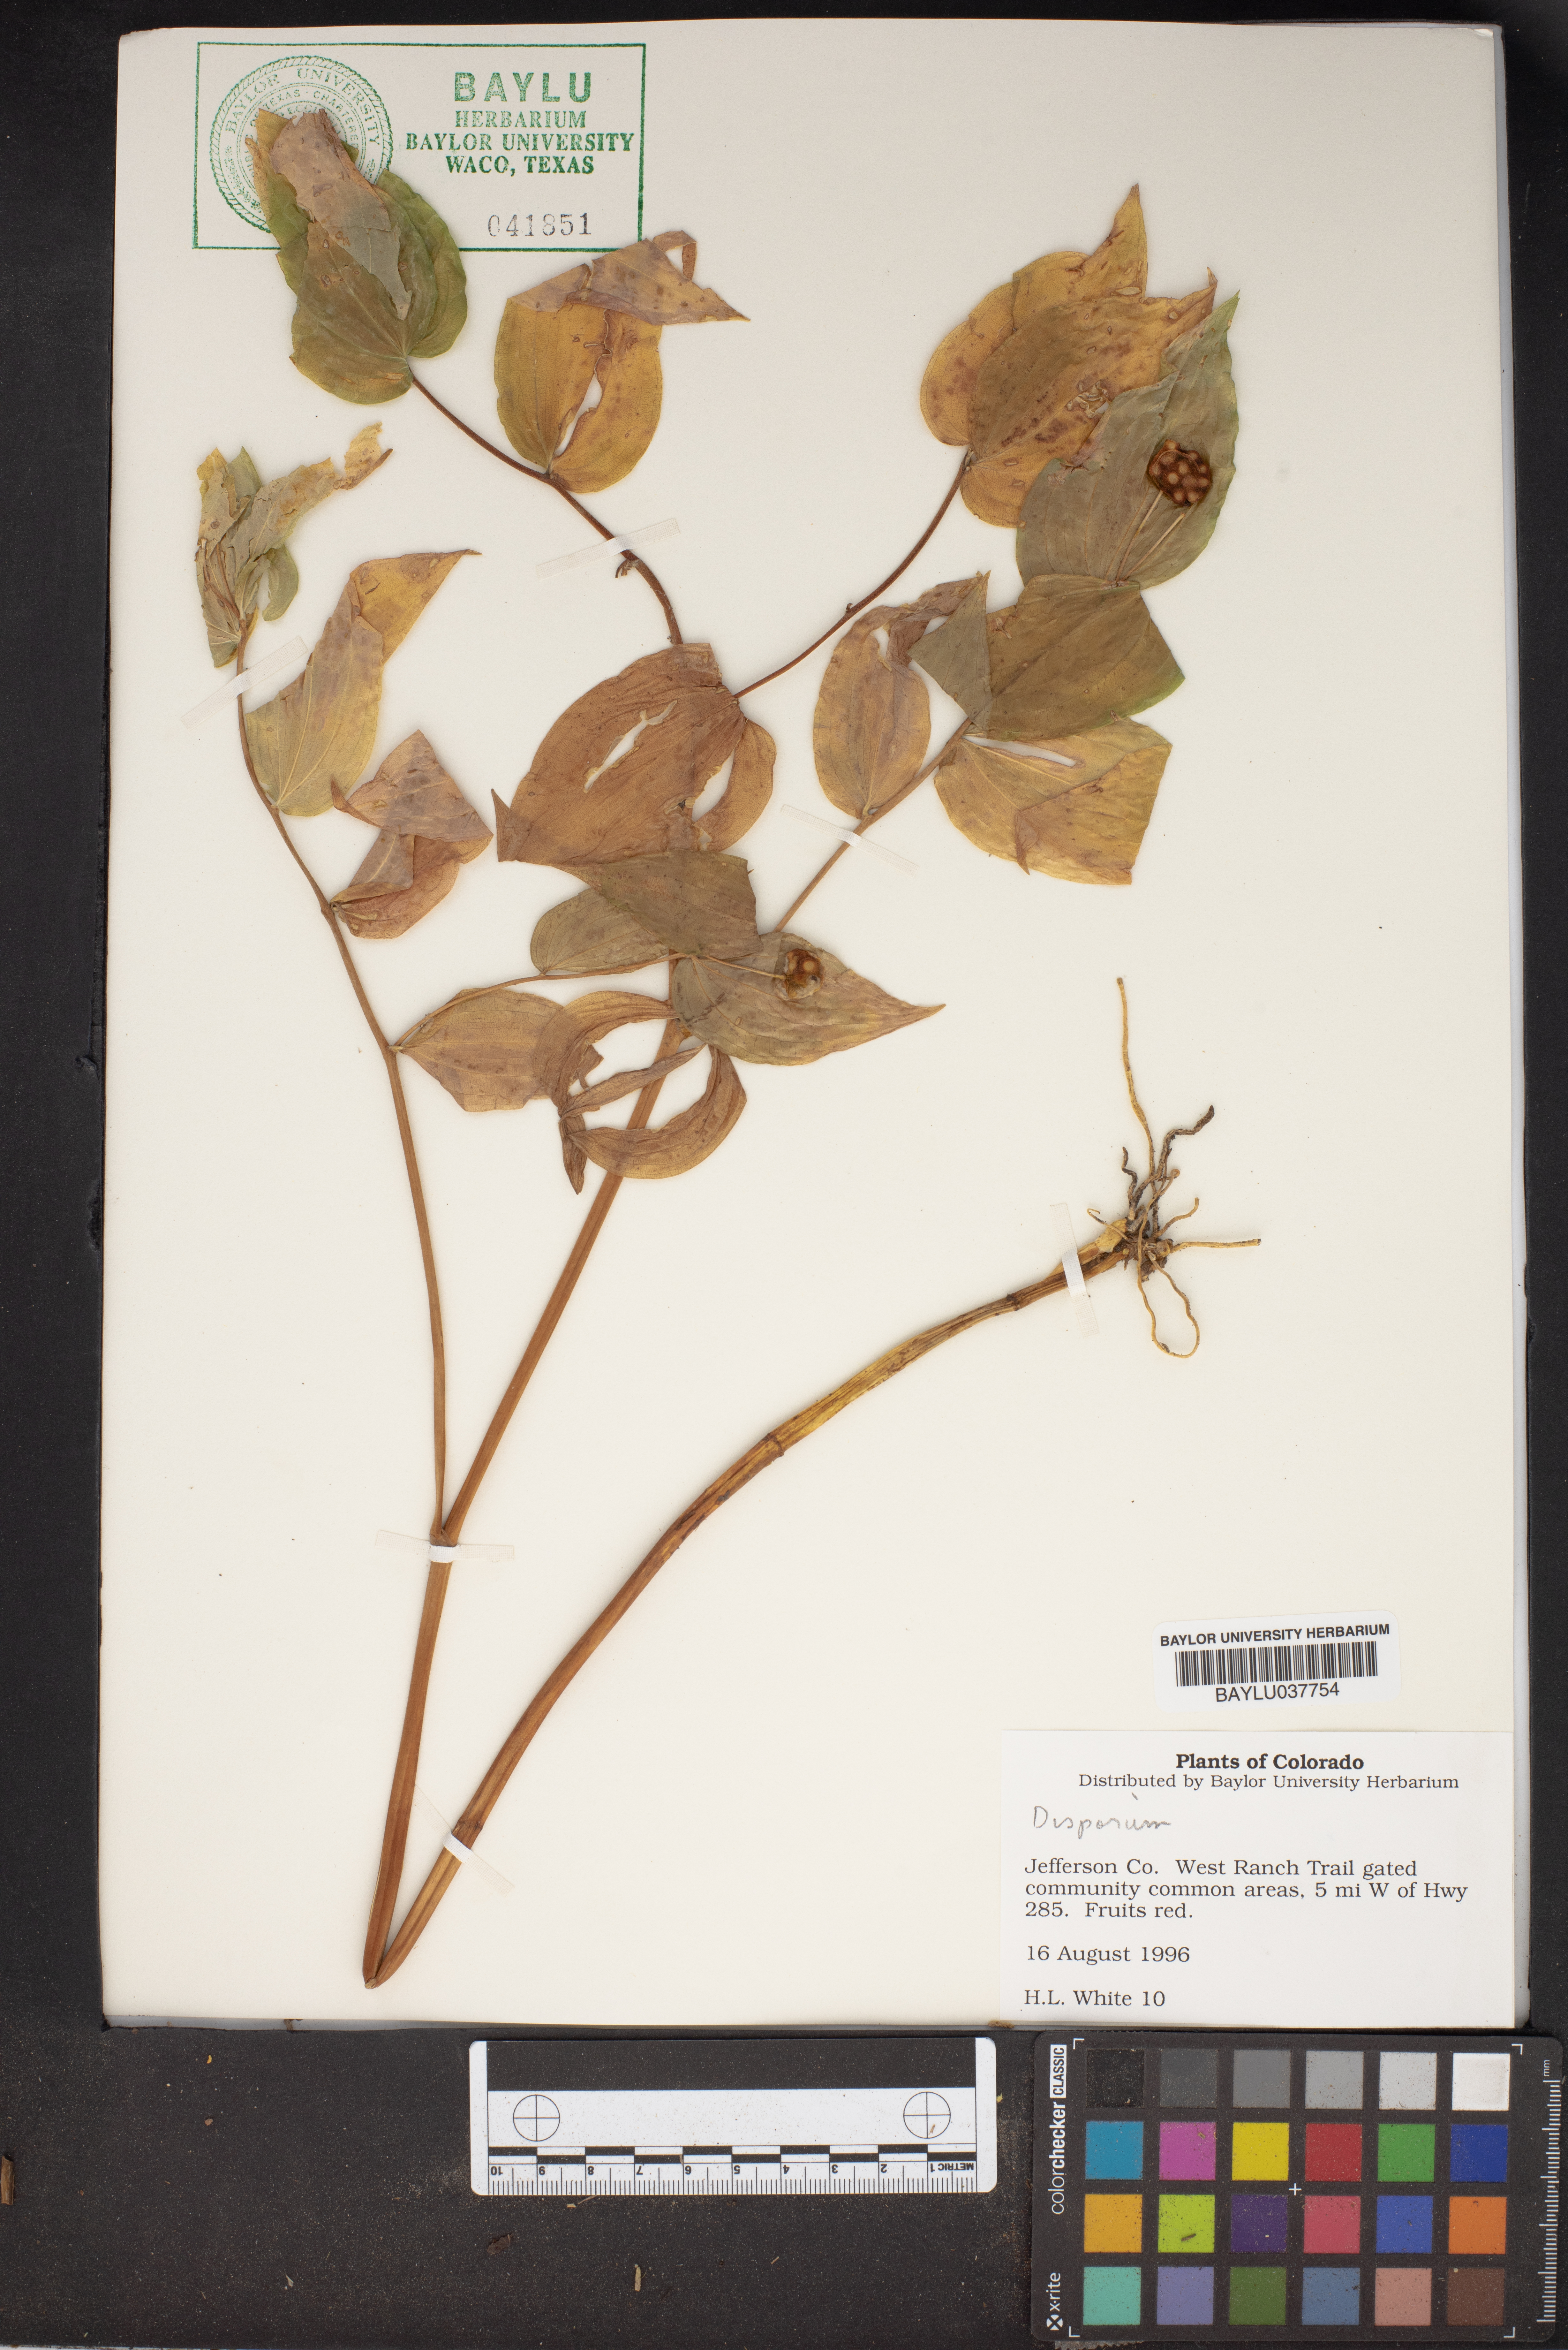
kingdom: Plantae
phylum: Tracheophyta
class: Liliopsida
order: Liliales
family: Colchicaceae
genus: Disporum
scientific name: Disporum
